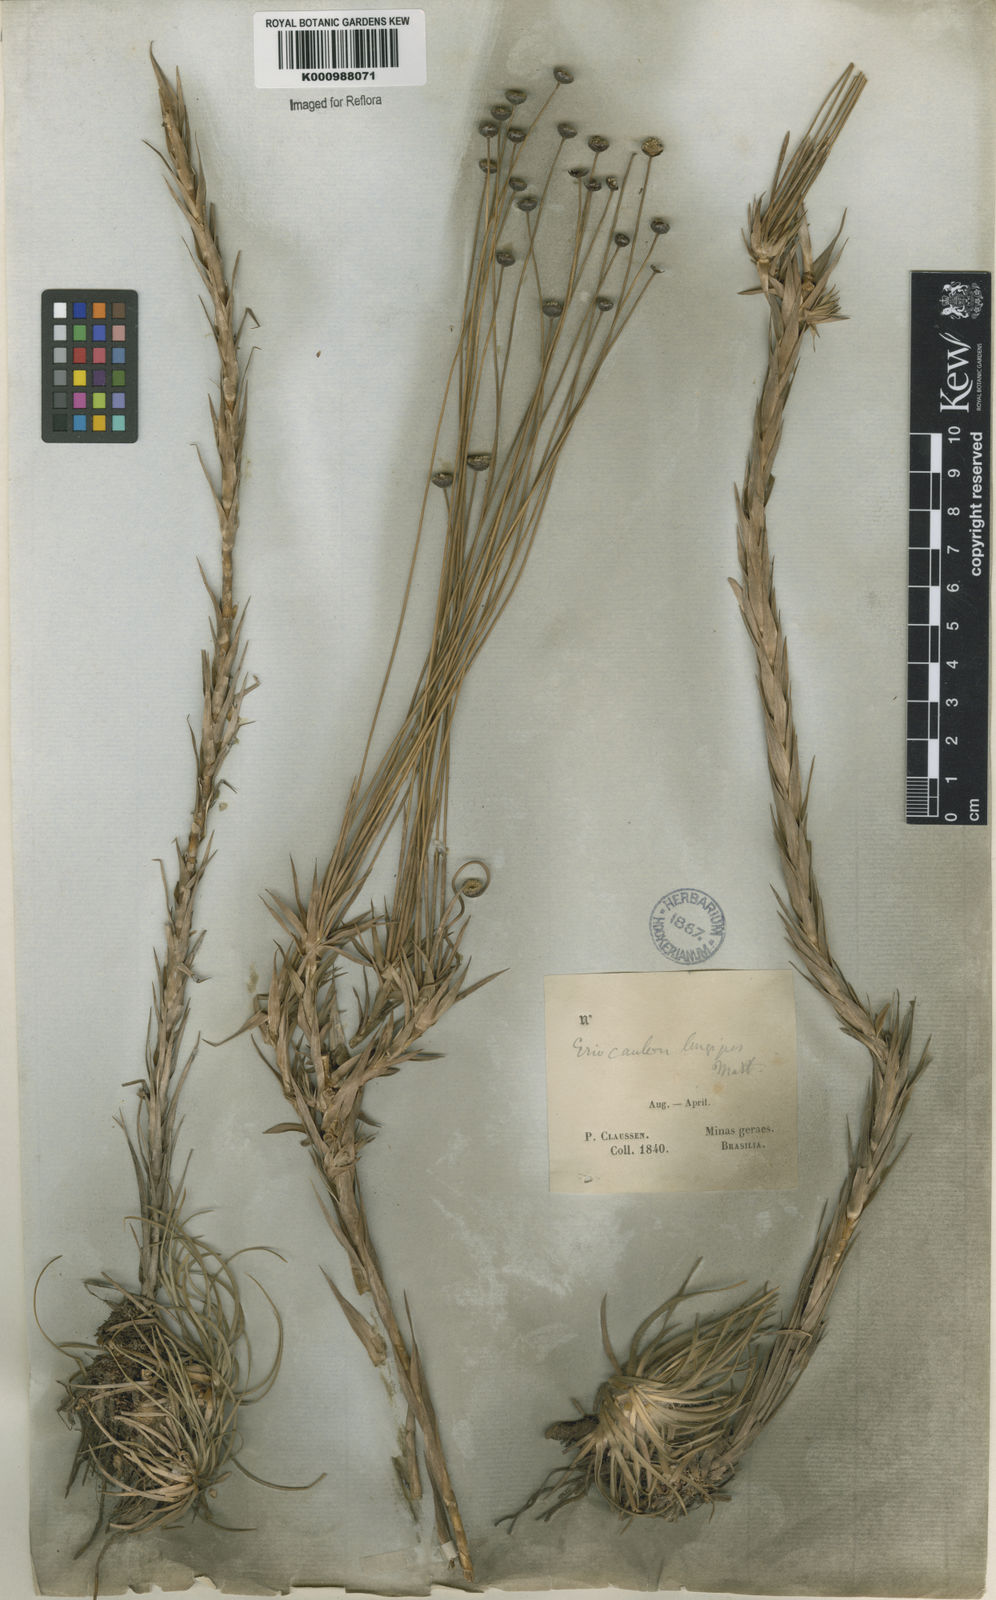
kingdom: Plantae
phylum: Tracheophyta
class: Liliopsida
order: Poales
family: Eriocaulaceae
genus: Paepalanthus
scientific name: Paepalanthus
